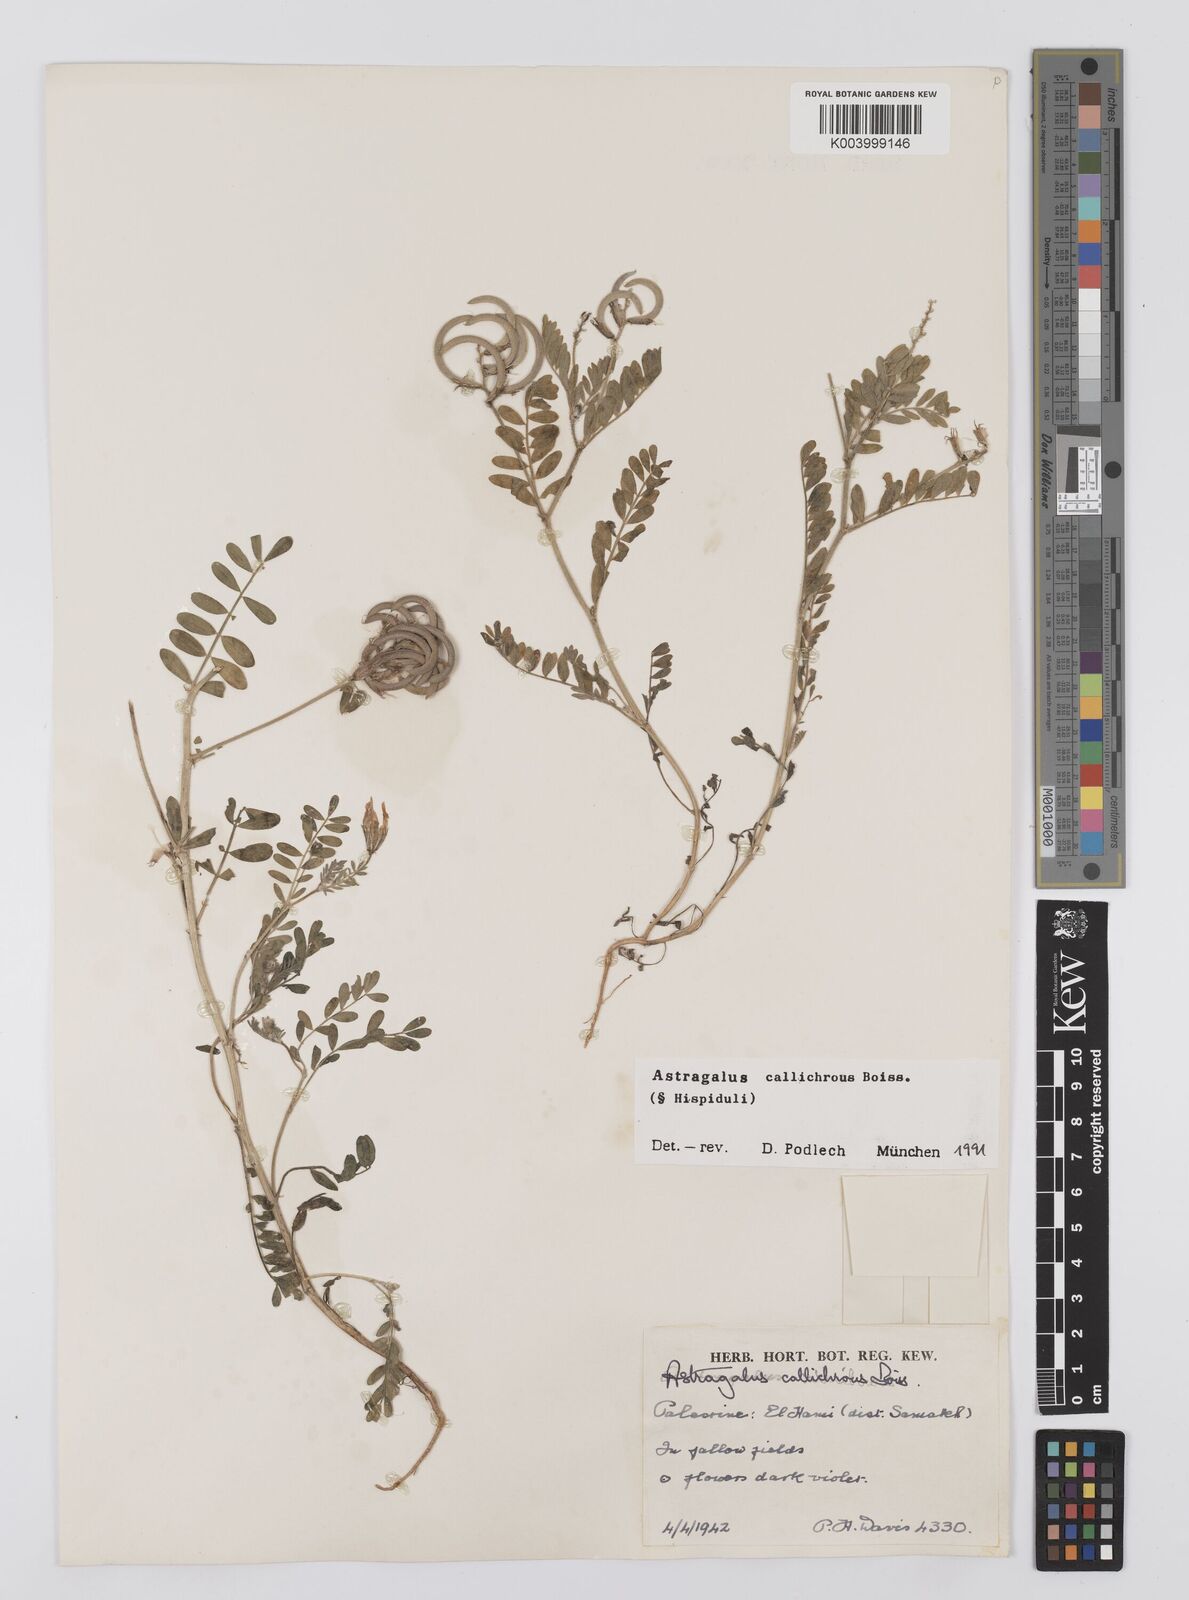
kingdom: Plantae
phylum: Tracheophyta
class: Magnoliopsida
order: Fabales
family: Fabaceae
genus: Astragalus
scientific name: Astragalus callichrous
